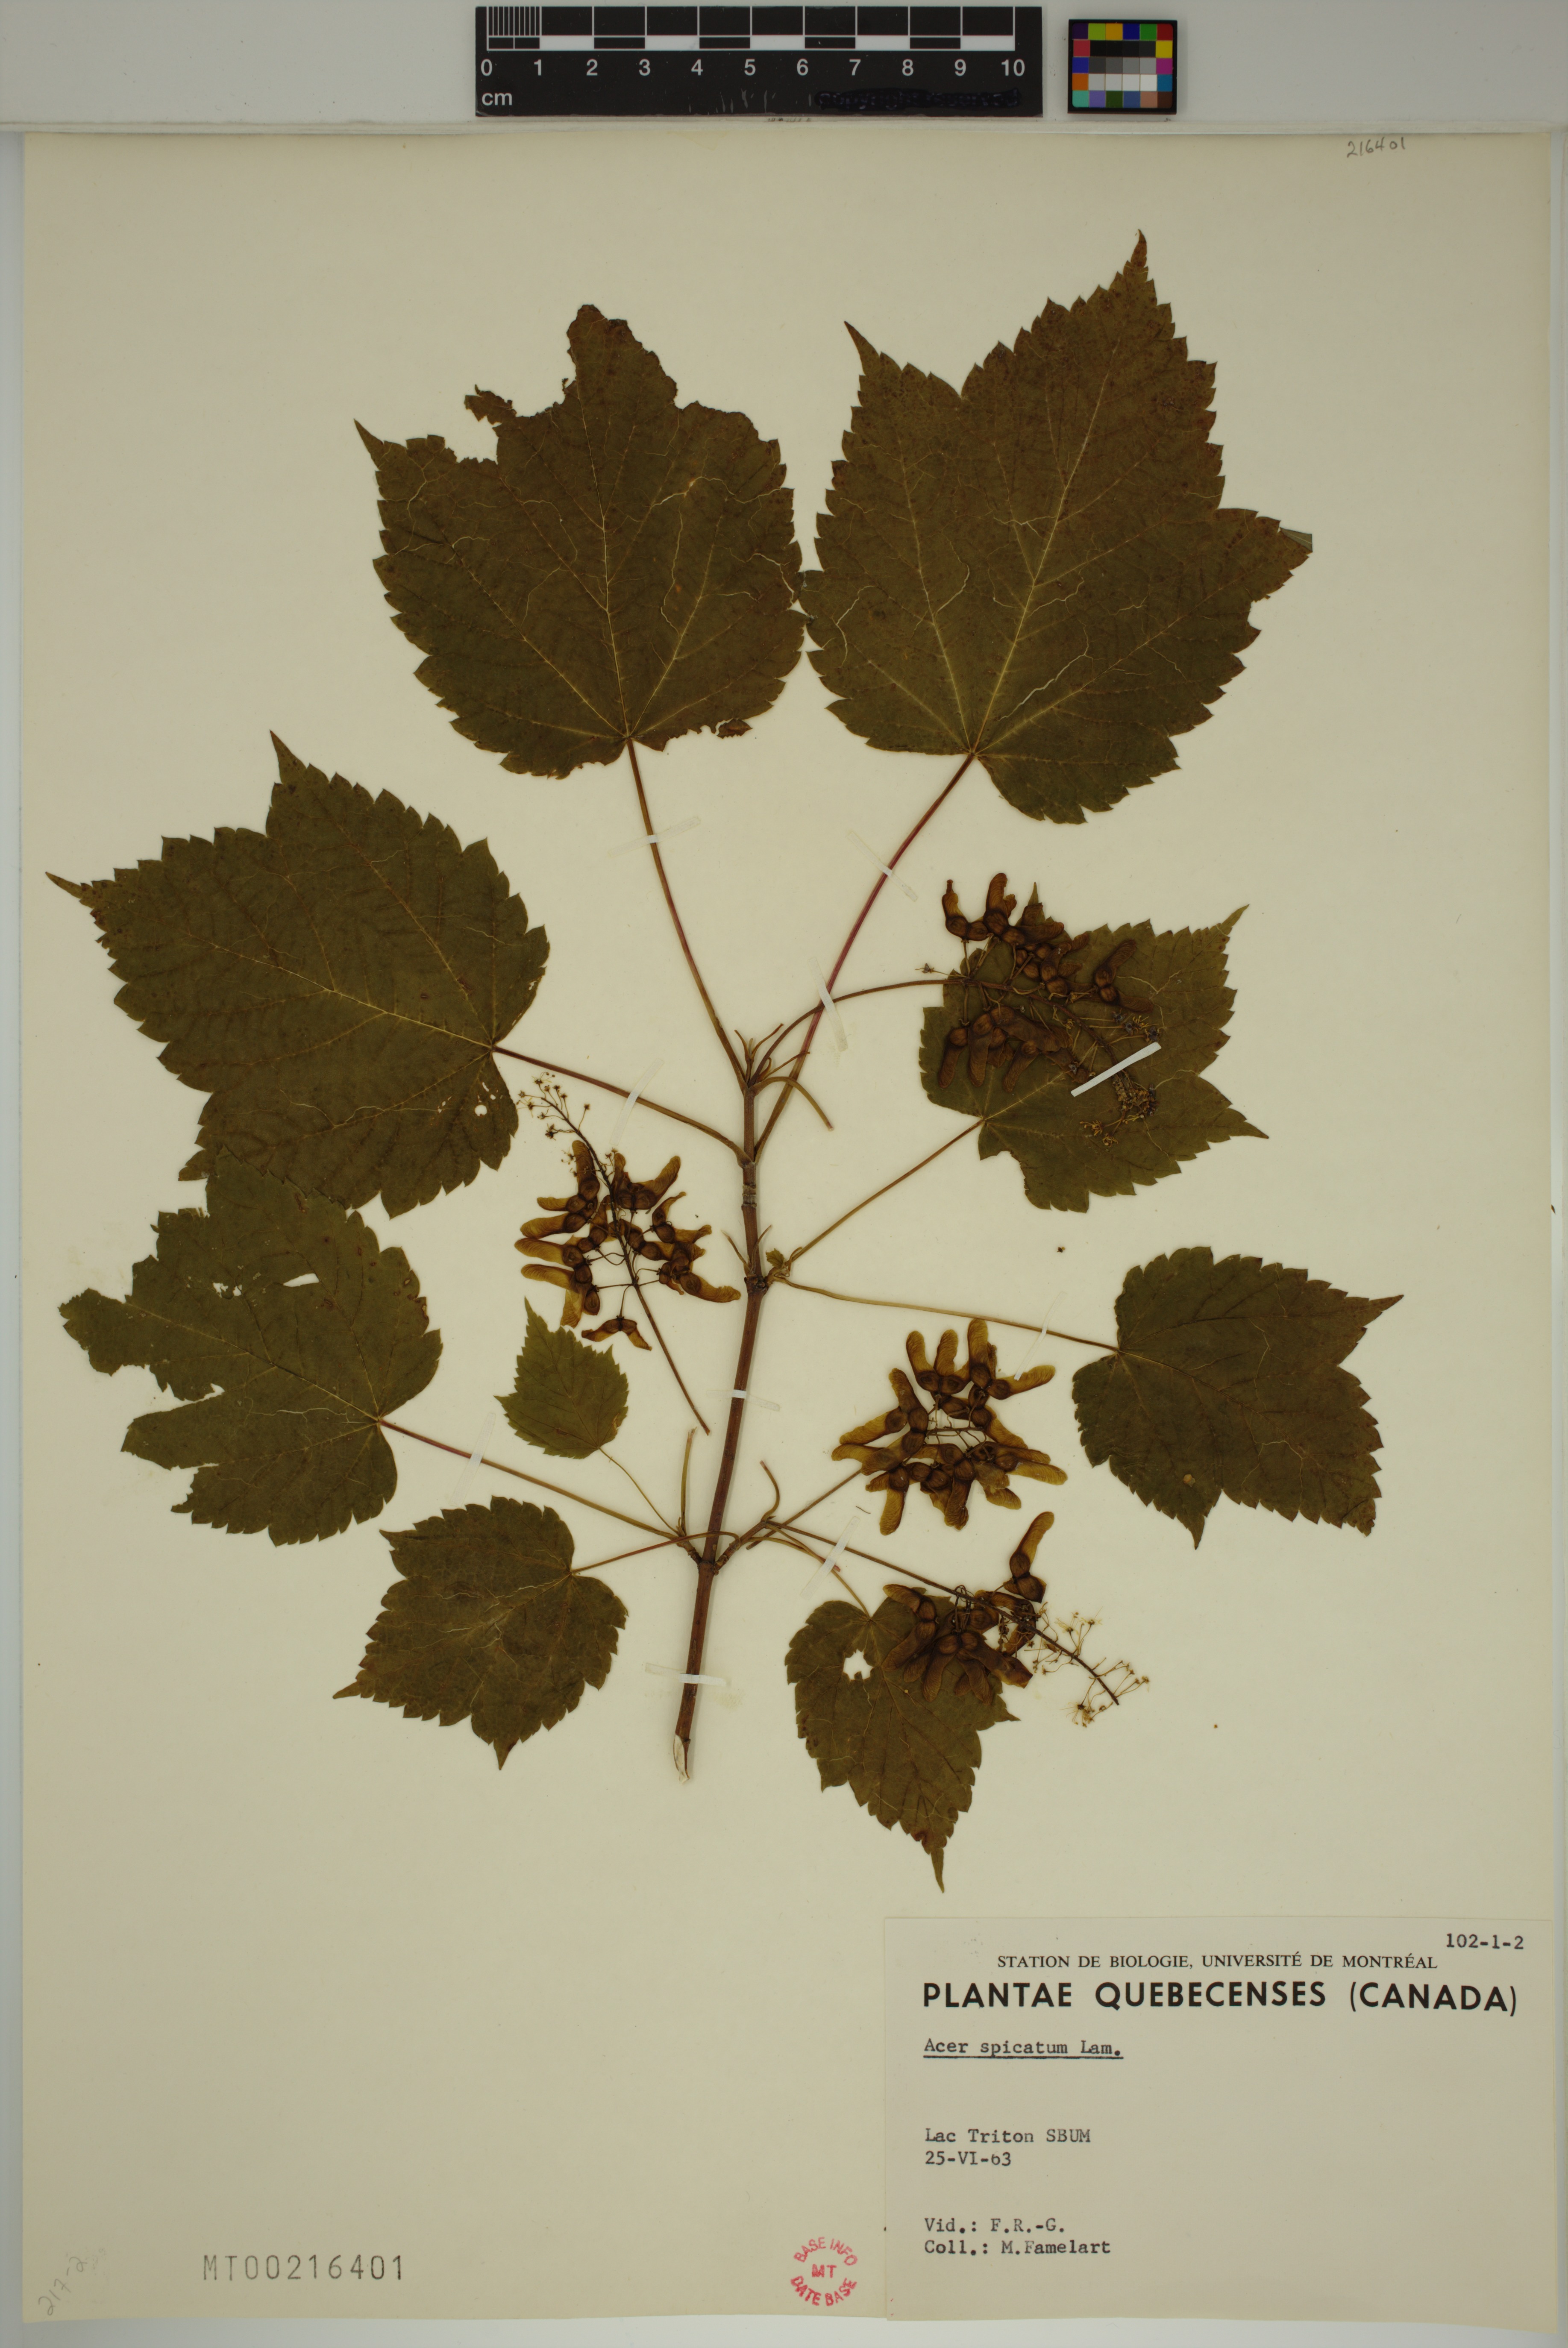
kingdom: Plantae
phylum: Tracheophyta
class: Magnoliopsida
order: Sapindales
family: Sapindaceae
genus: Acer
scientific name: Acer spicatum
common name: Mountain maple
